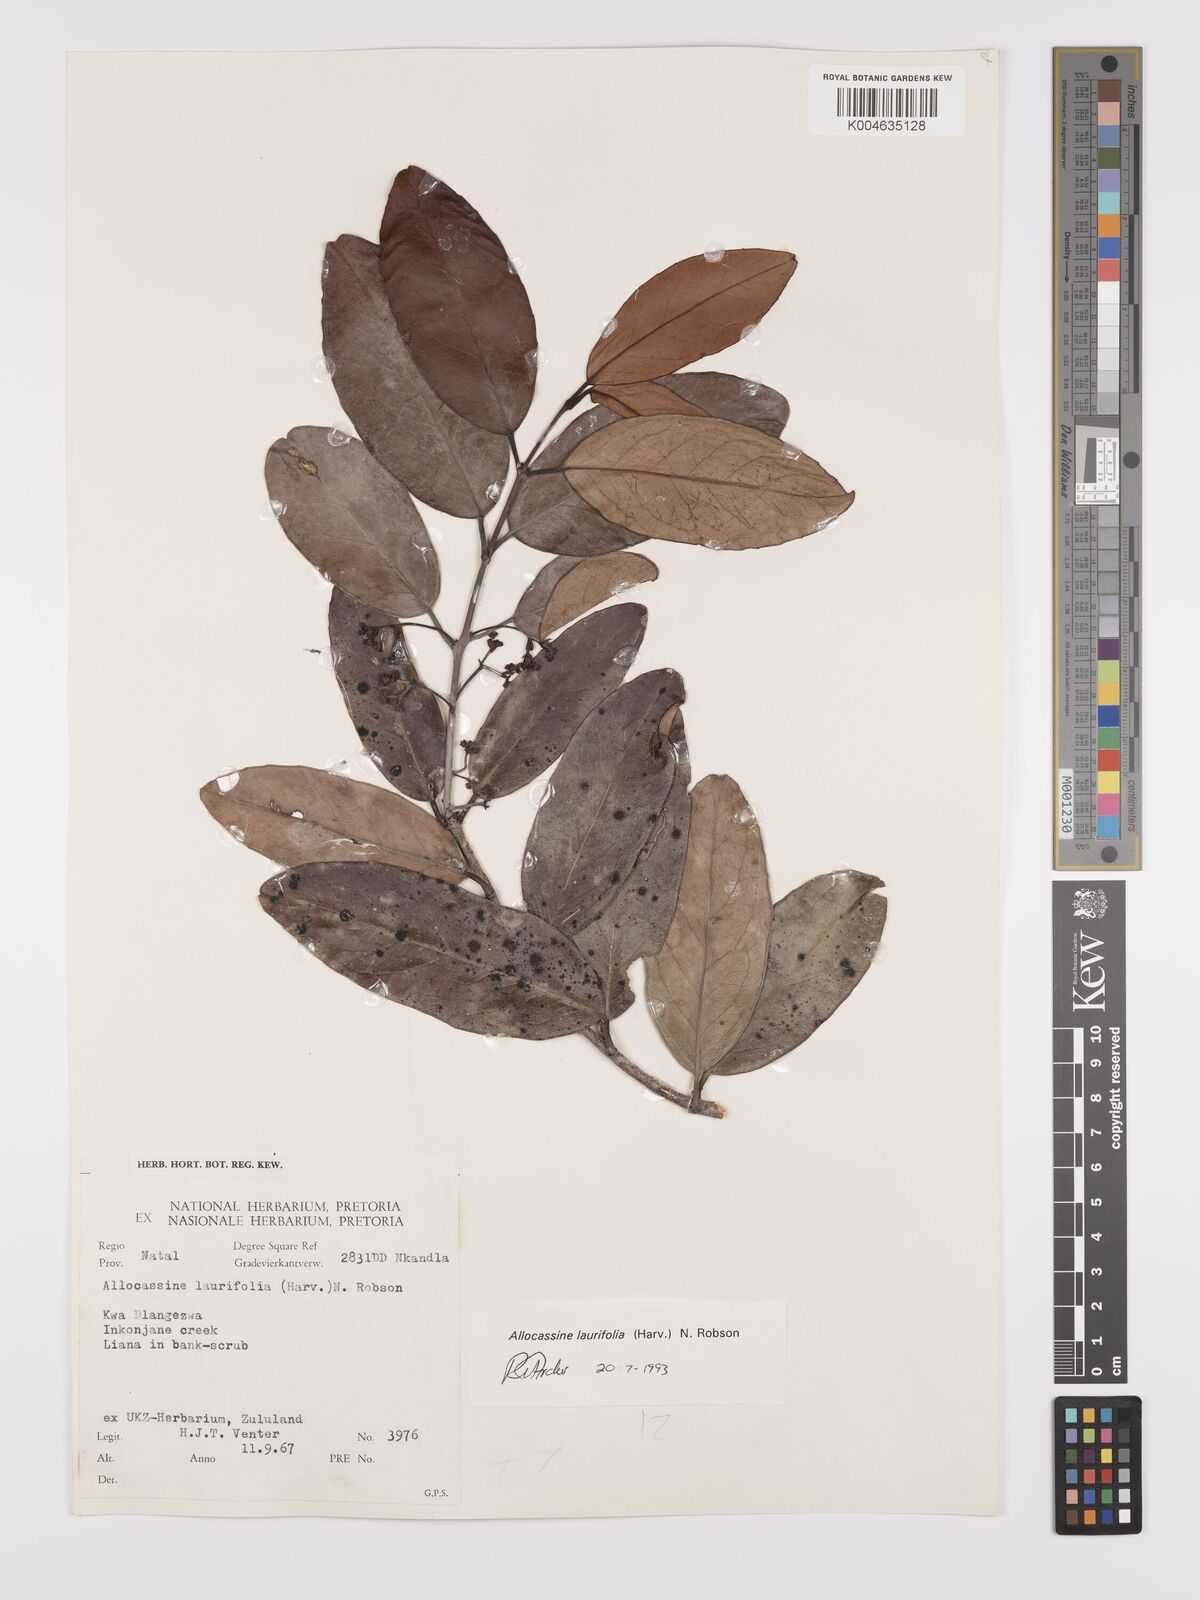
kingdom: Plantae
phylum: Tracheophyta
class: Magnoliopsida
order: Celastrales
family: Celastraceae
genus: Allocassine
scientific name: Allocassine
